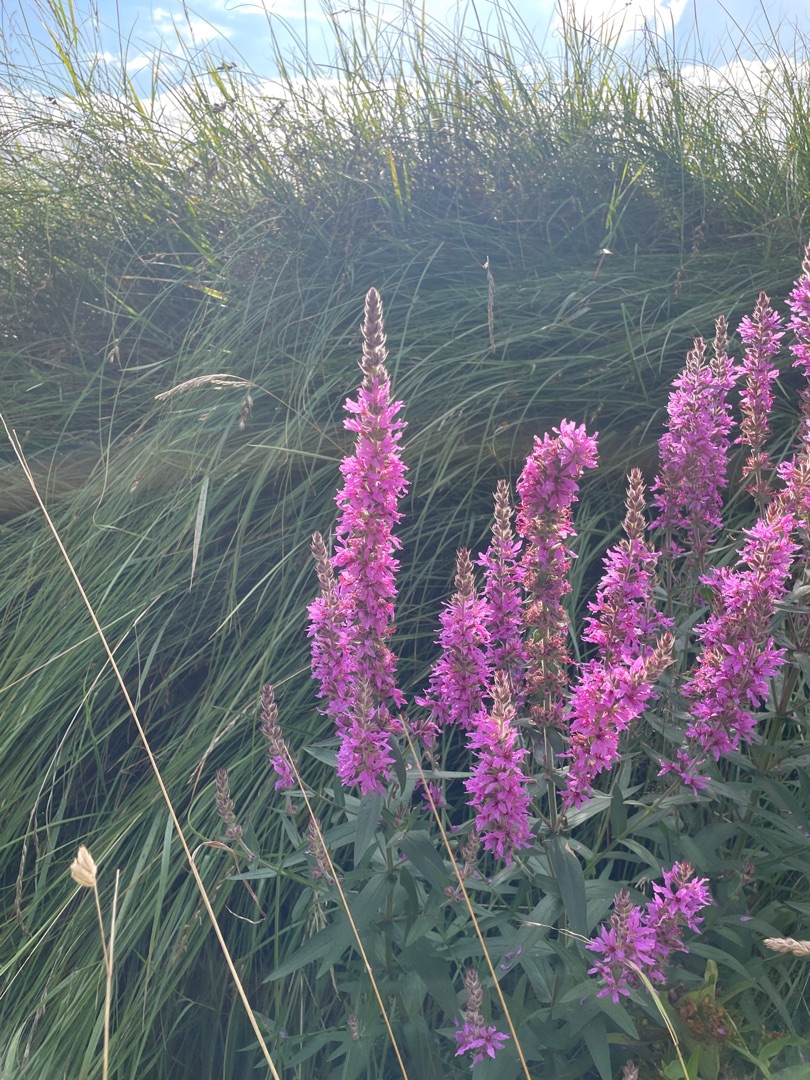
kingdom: Plantae
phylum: Tracheophyta
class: Magnoliopsida
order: Myrtales
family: Lythraceae
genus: Lythrum
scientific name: Lythrum salicaria
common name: Kattehale
